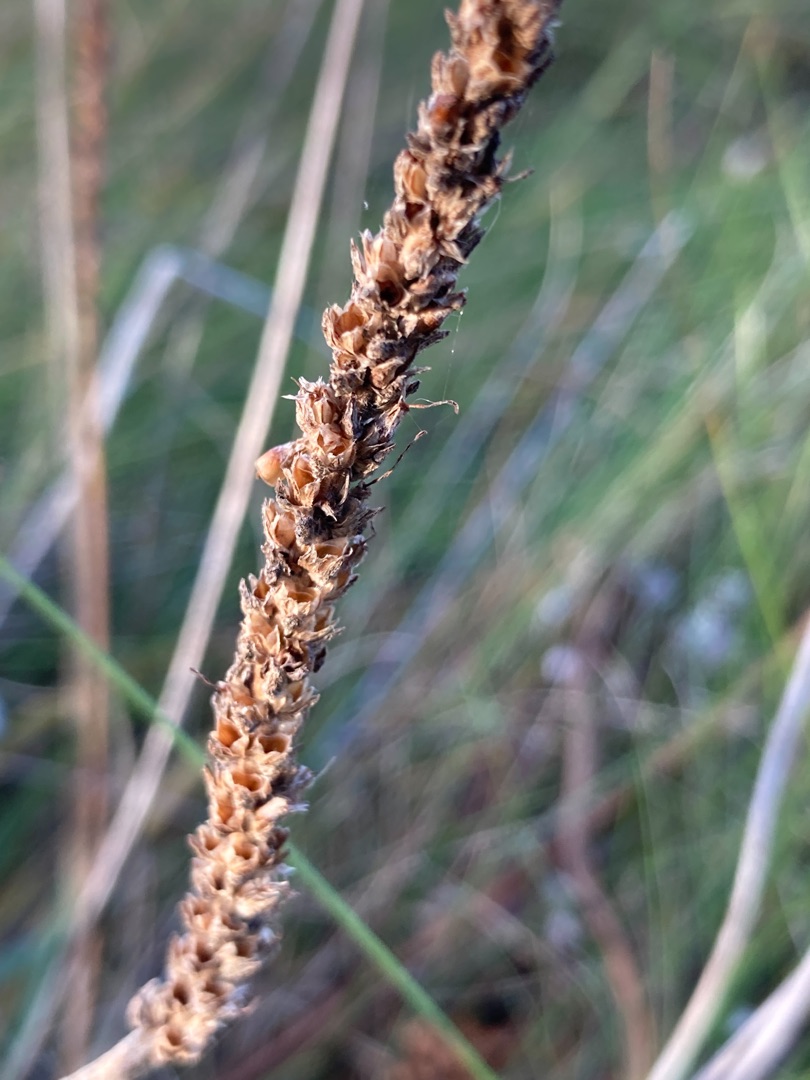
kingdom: Plantae
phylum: Tracheophyta
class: Magnoliopsida
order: Lamiales
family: Plantaginaceae
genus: Plantago
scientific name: Plantago maritima
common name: Strand-vejbred
